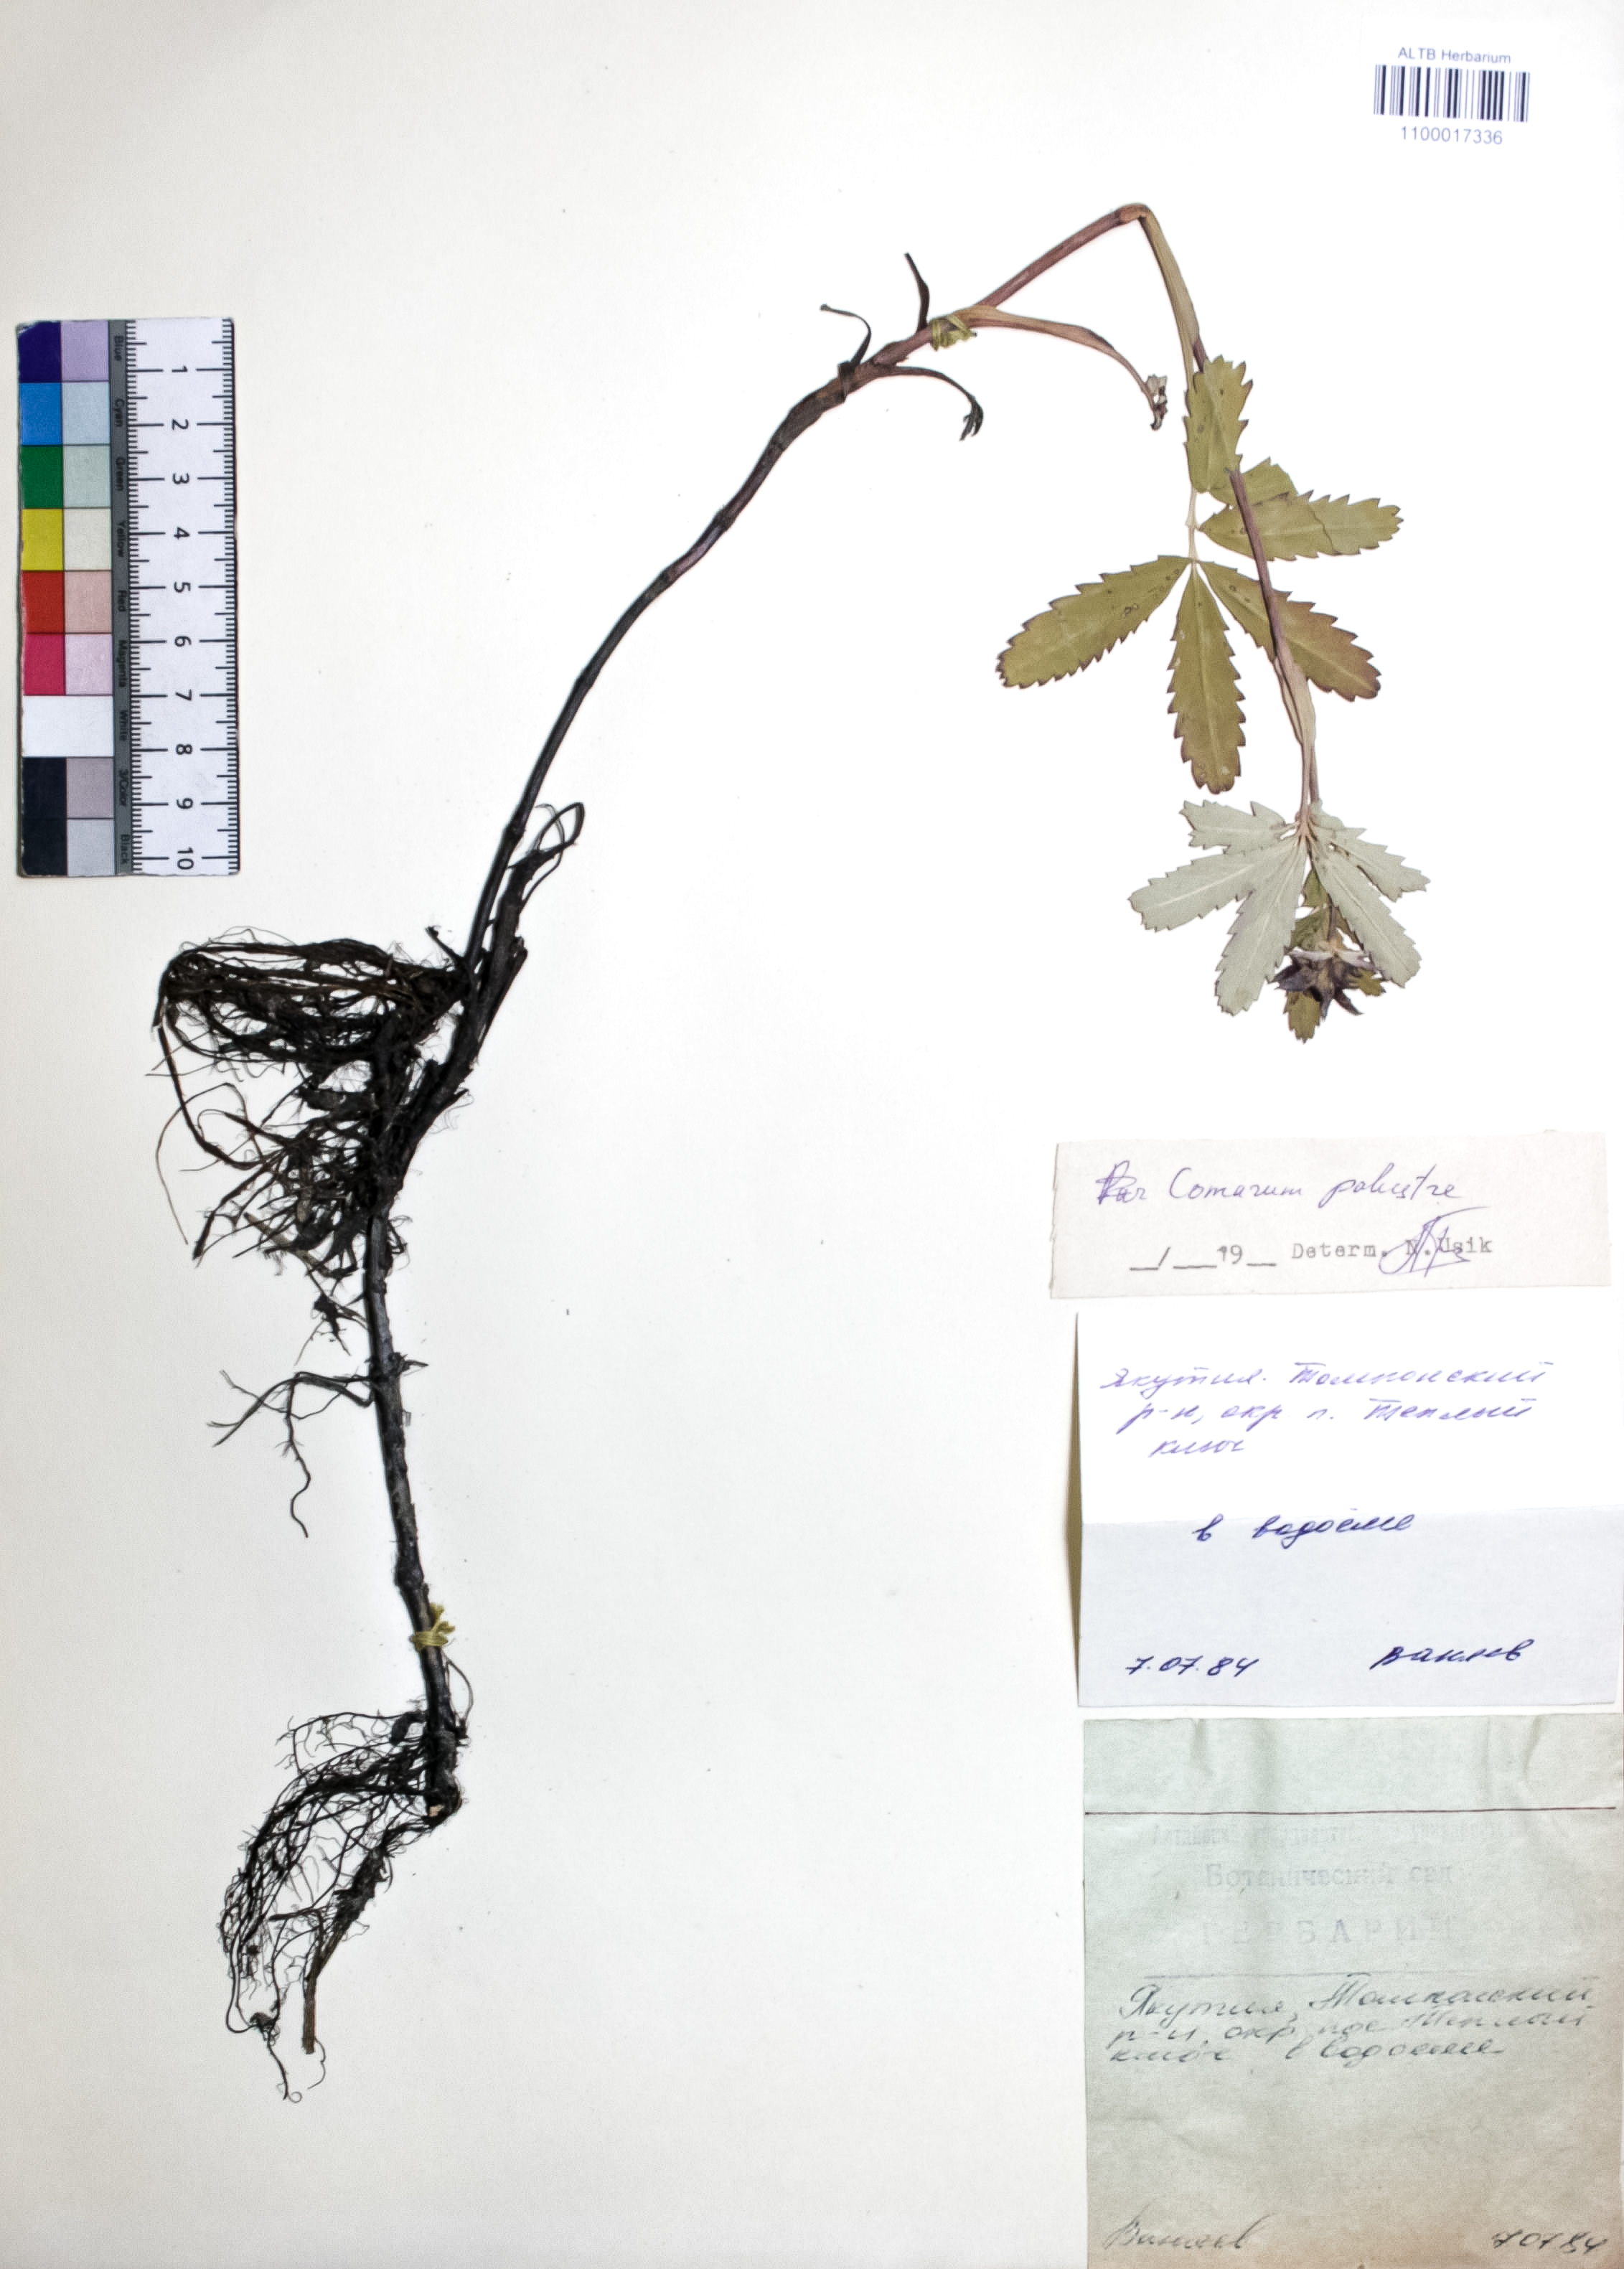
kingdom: Plantae
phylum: Tracheophyta
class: Magnoliopsida
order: Rosales
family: Rosaceae
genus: Comarum
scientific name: Comarum palustre
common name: Marsh cinquefoil
